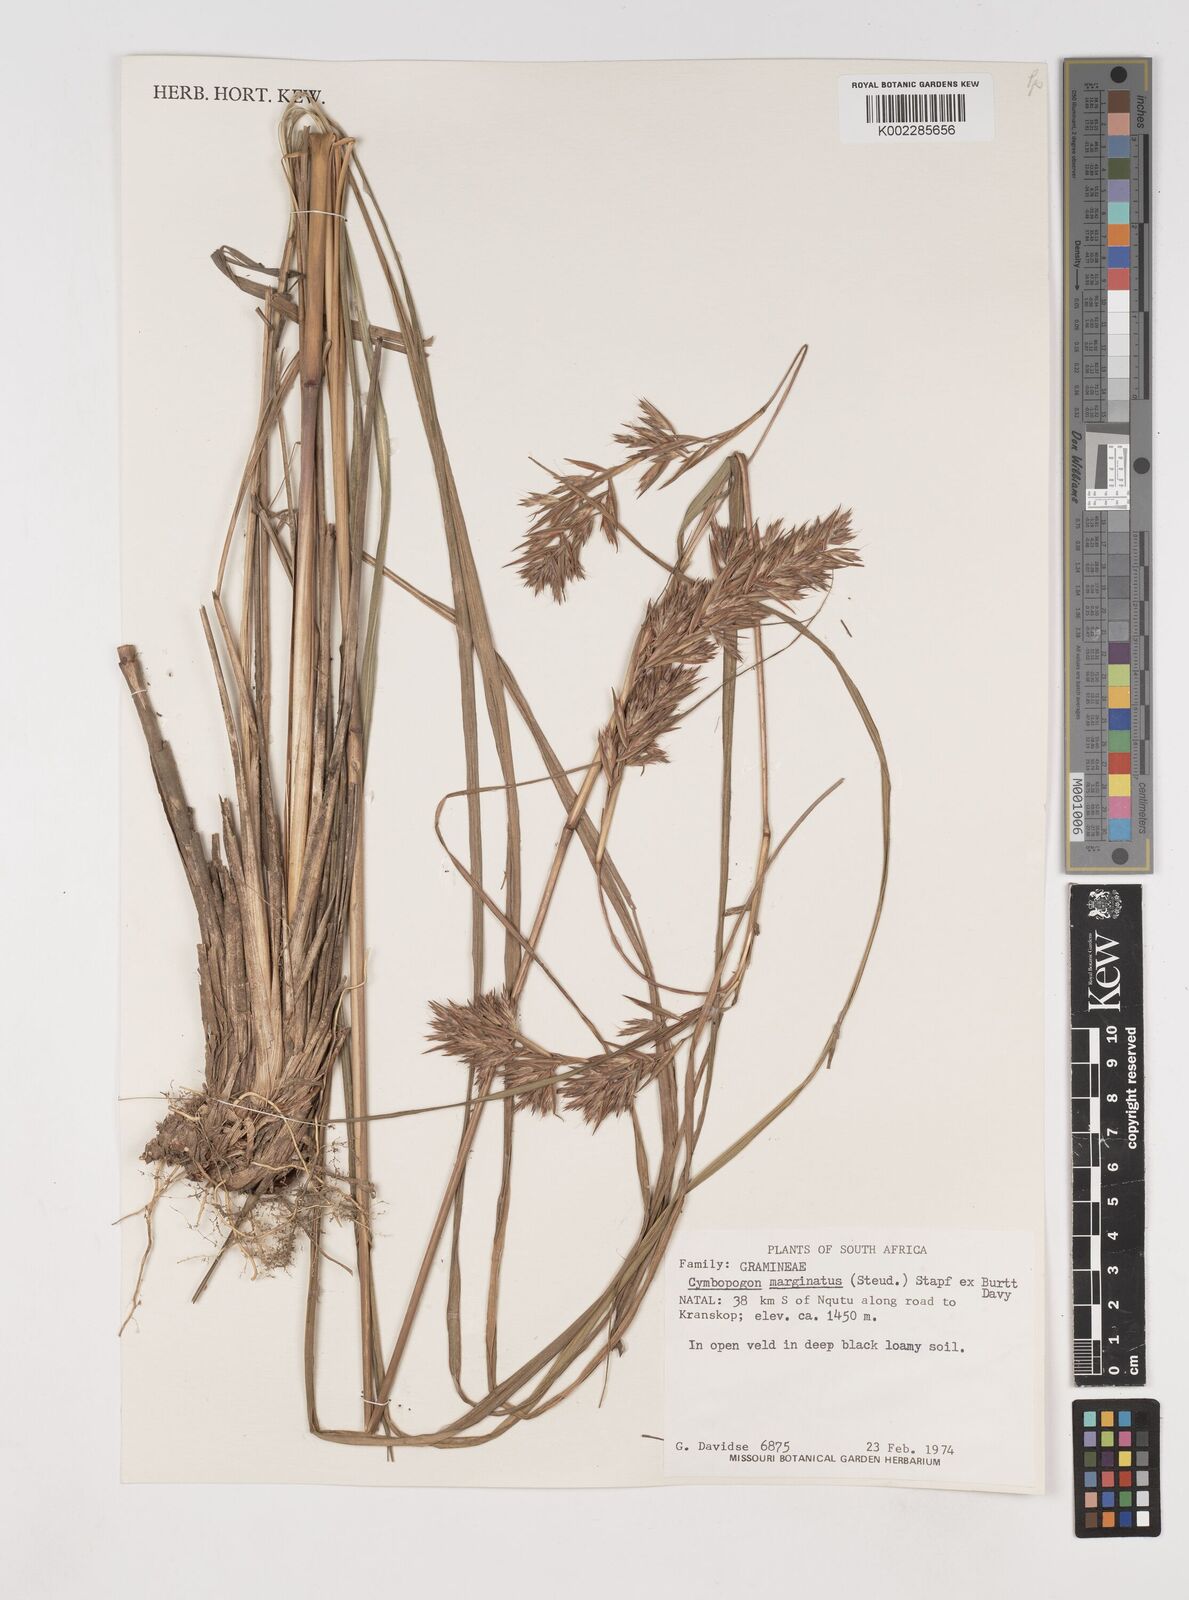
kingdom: Plantae
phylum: Tracheophyta
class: Liliopsida
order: Poales
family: Poaceae
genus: Cymbopogon
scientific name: Cymbopogon marginatus
